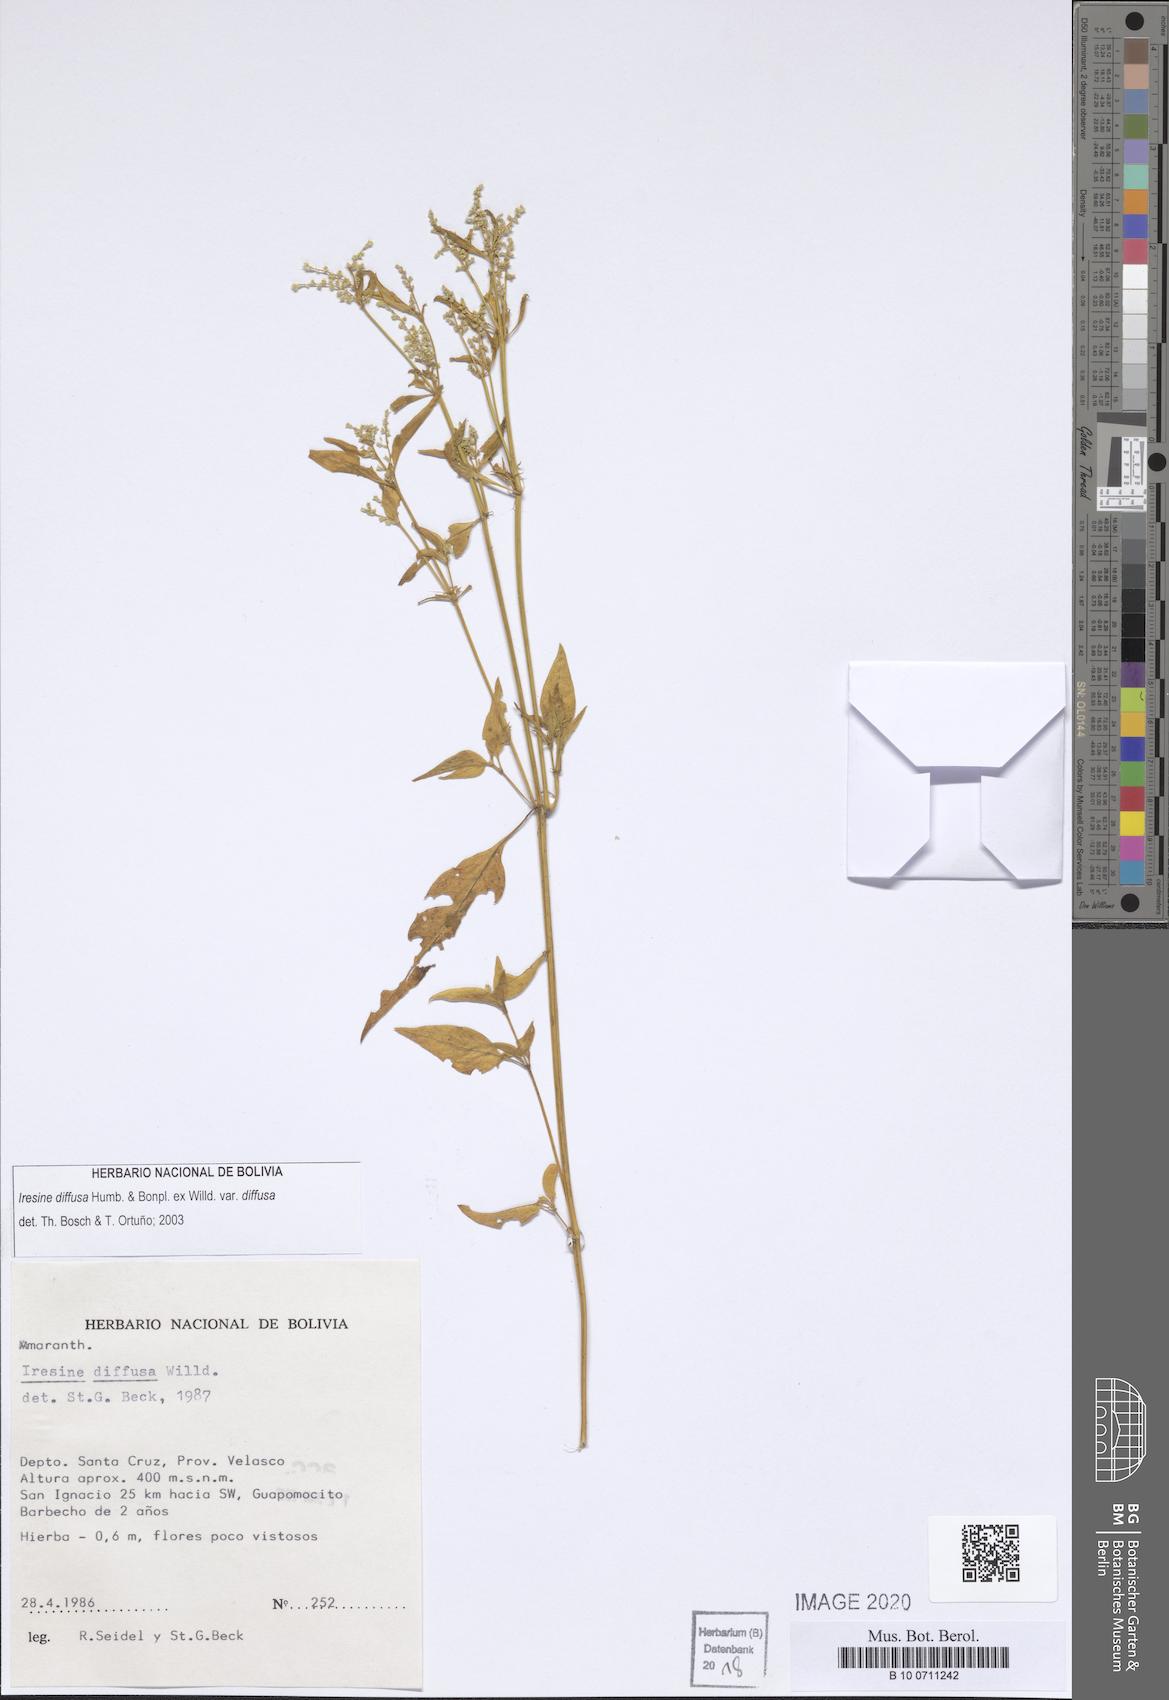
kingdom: Plantae
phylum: Tracheophyta
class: Magnoliopsida
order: Caryophyllales
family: Amaranthaceae
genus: Iresine
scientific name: Iresine diffusa
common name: Juba's-bush
